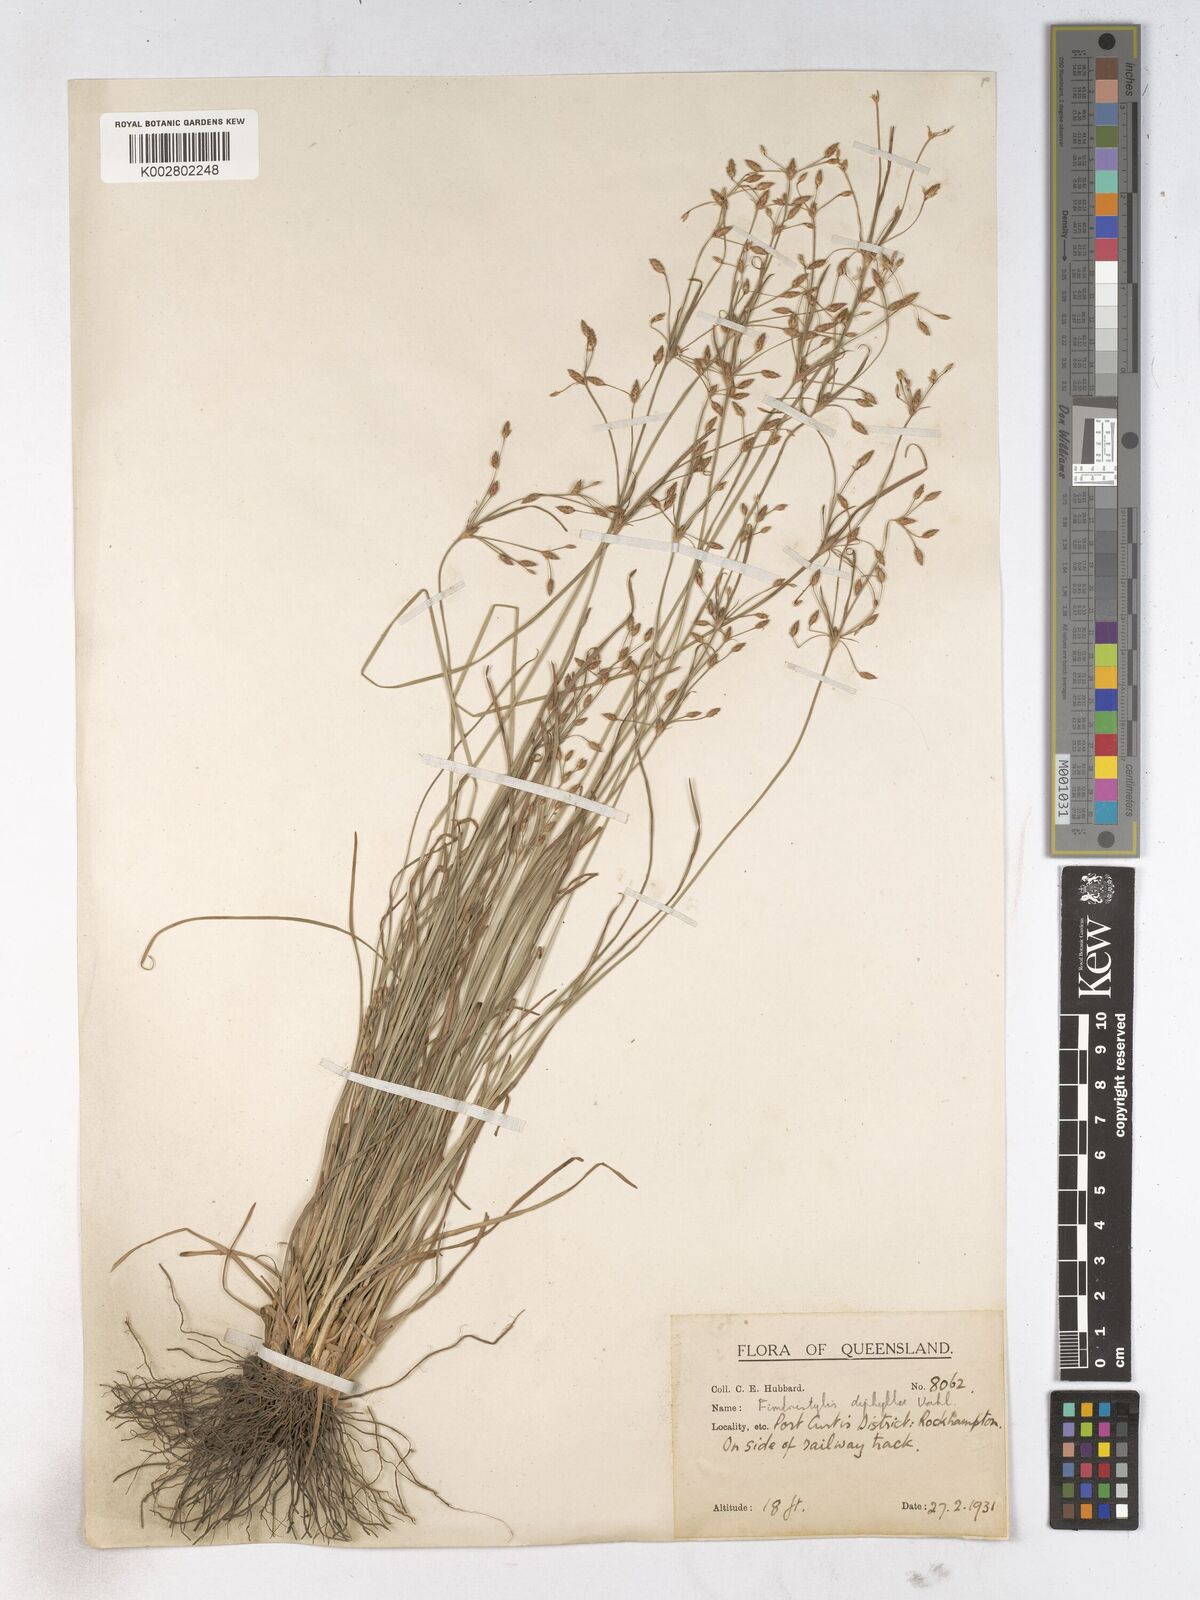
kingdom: Plantae
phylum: Tracheophyta
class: Liliopsida
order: Poales
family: Cyperaceae
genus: Fimbristylis
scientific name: Fimbristylis dichotoma
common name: Forked fimbry
